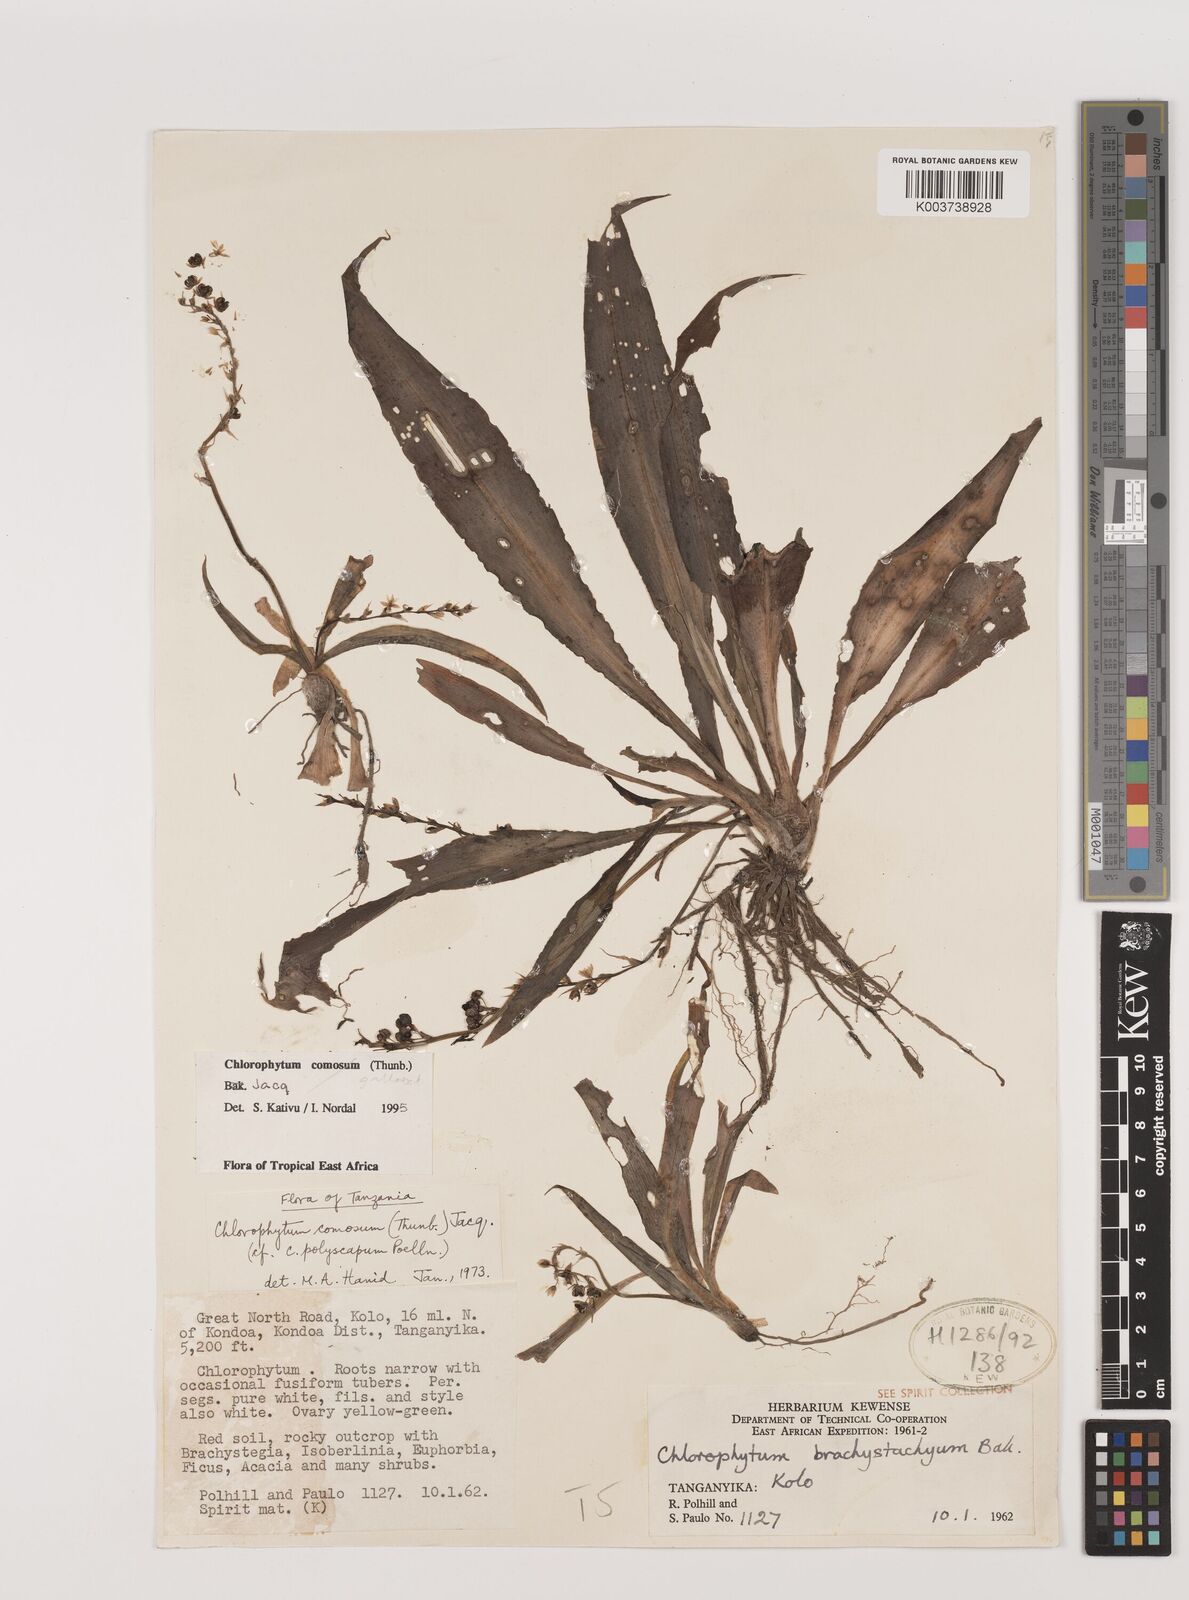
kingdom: Plantae
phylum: Tracheophyta
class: Liliopsida
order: Asparagales
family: Asparagaceae
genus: Chlorophytum
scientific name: Chlorophytum comosum
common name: Spider plant
